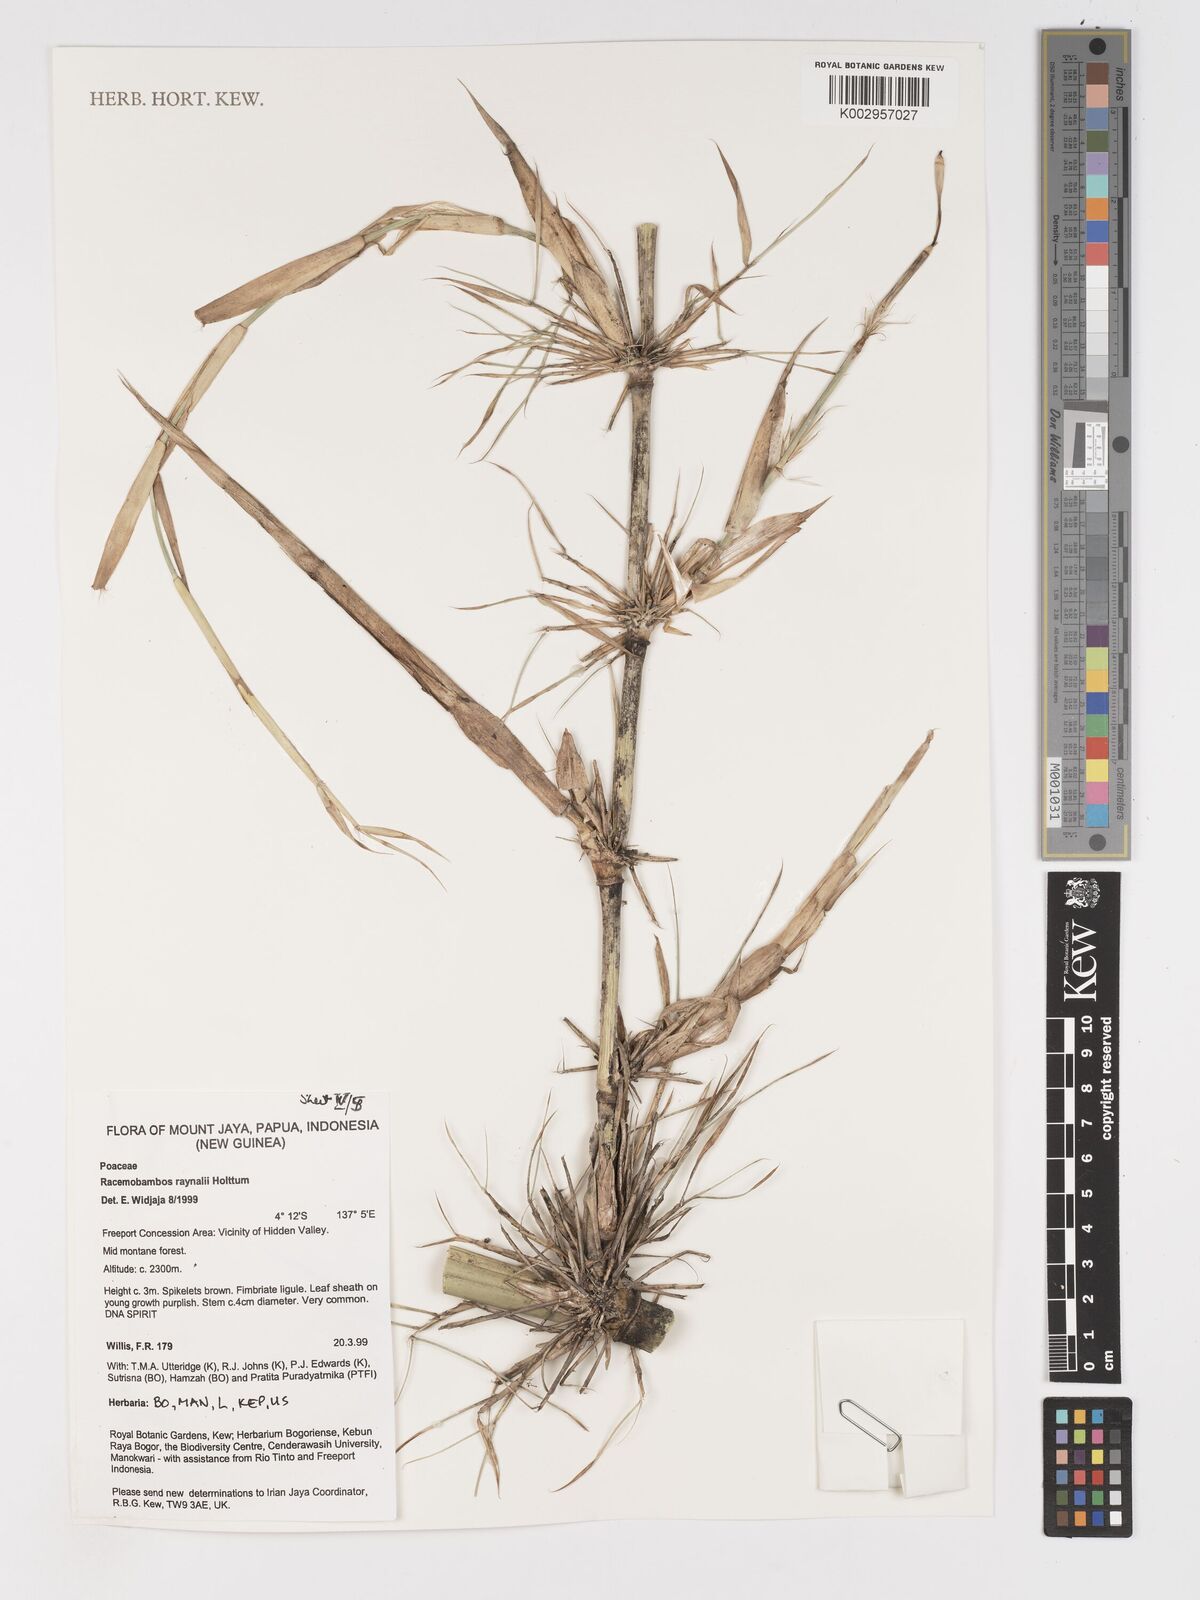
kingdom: Plantae
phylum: Tracheophyta
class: Liliopsida
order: Poales
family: Poaceae
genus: Racemobambos
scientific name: Racemobambos raynalii
